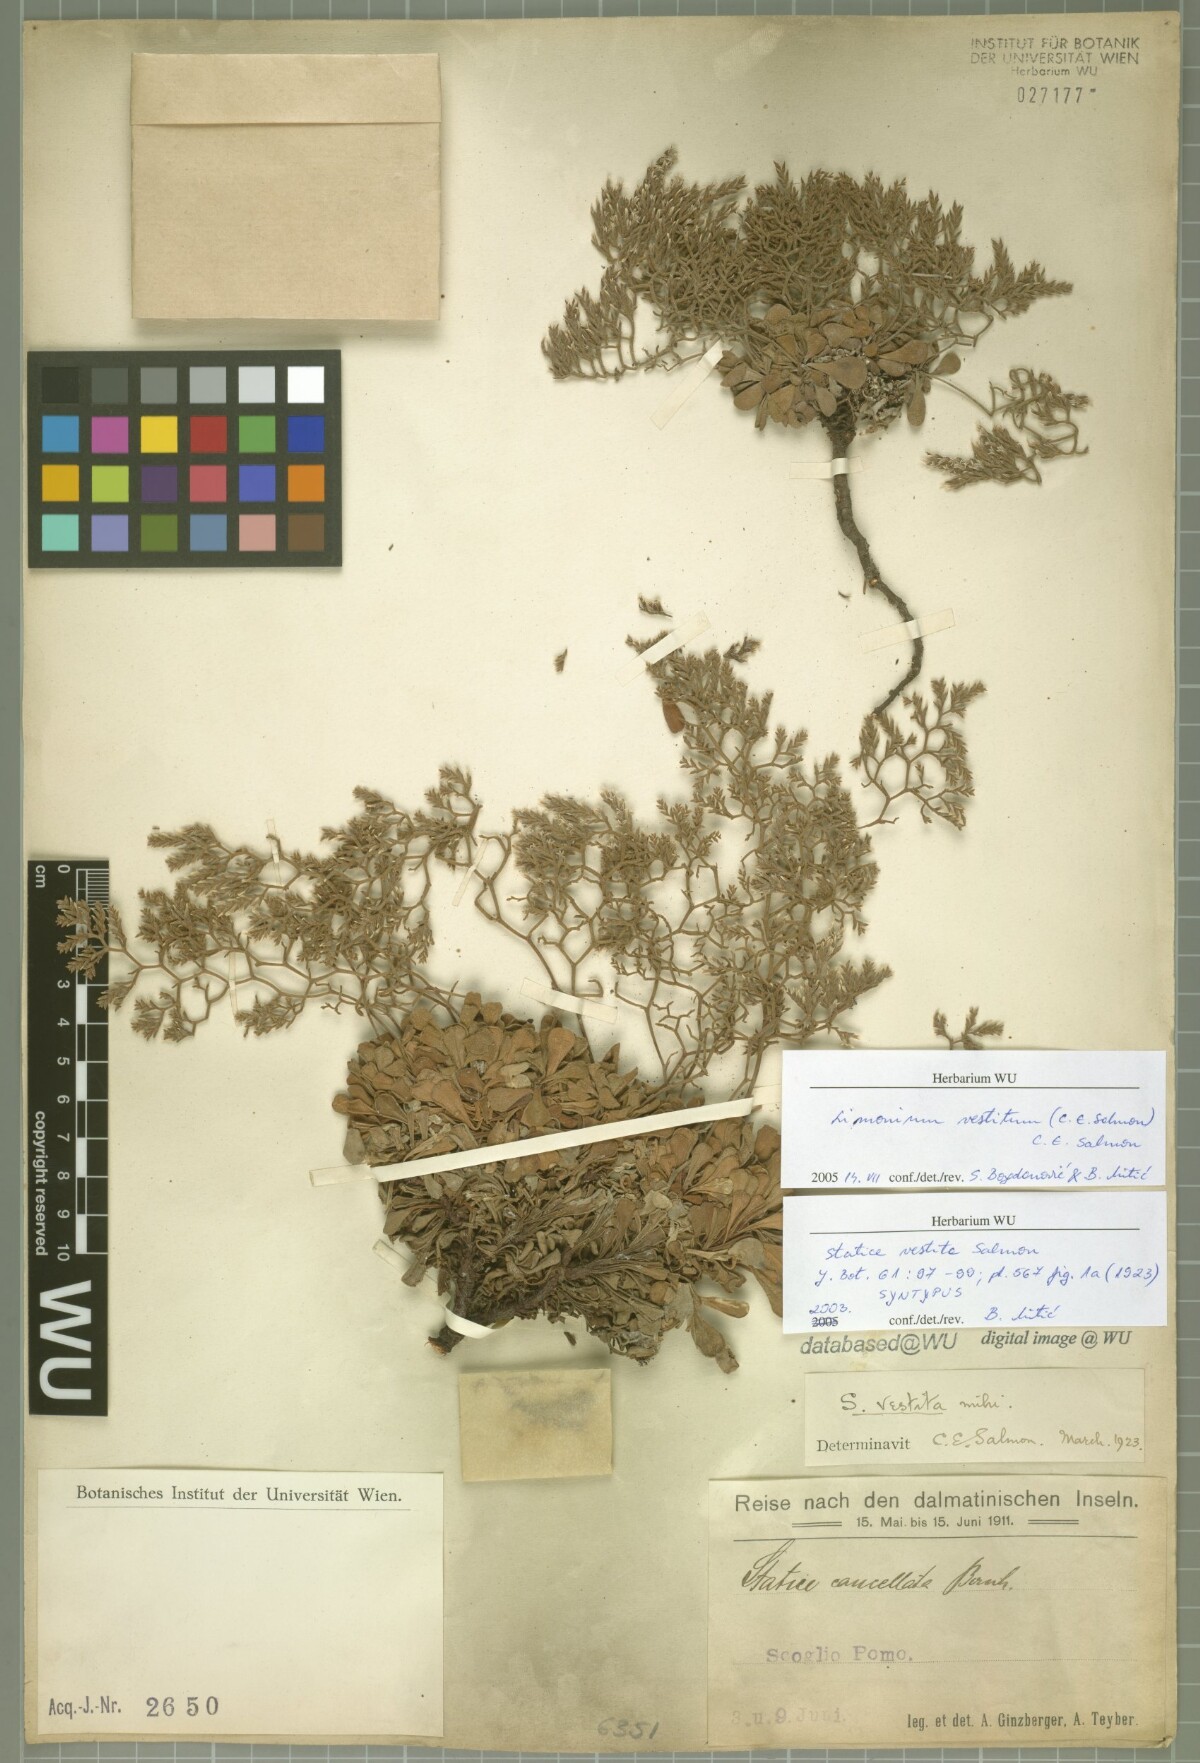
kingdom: Plantae
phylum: Tracheophyta
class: Magnoliopsida
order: Caryophyllales
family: Plumbaginaceae
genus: Limonium
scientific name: Limonium vestitum
